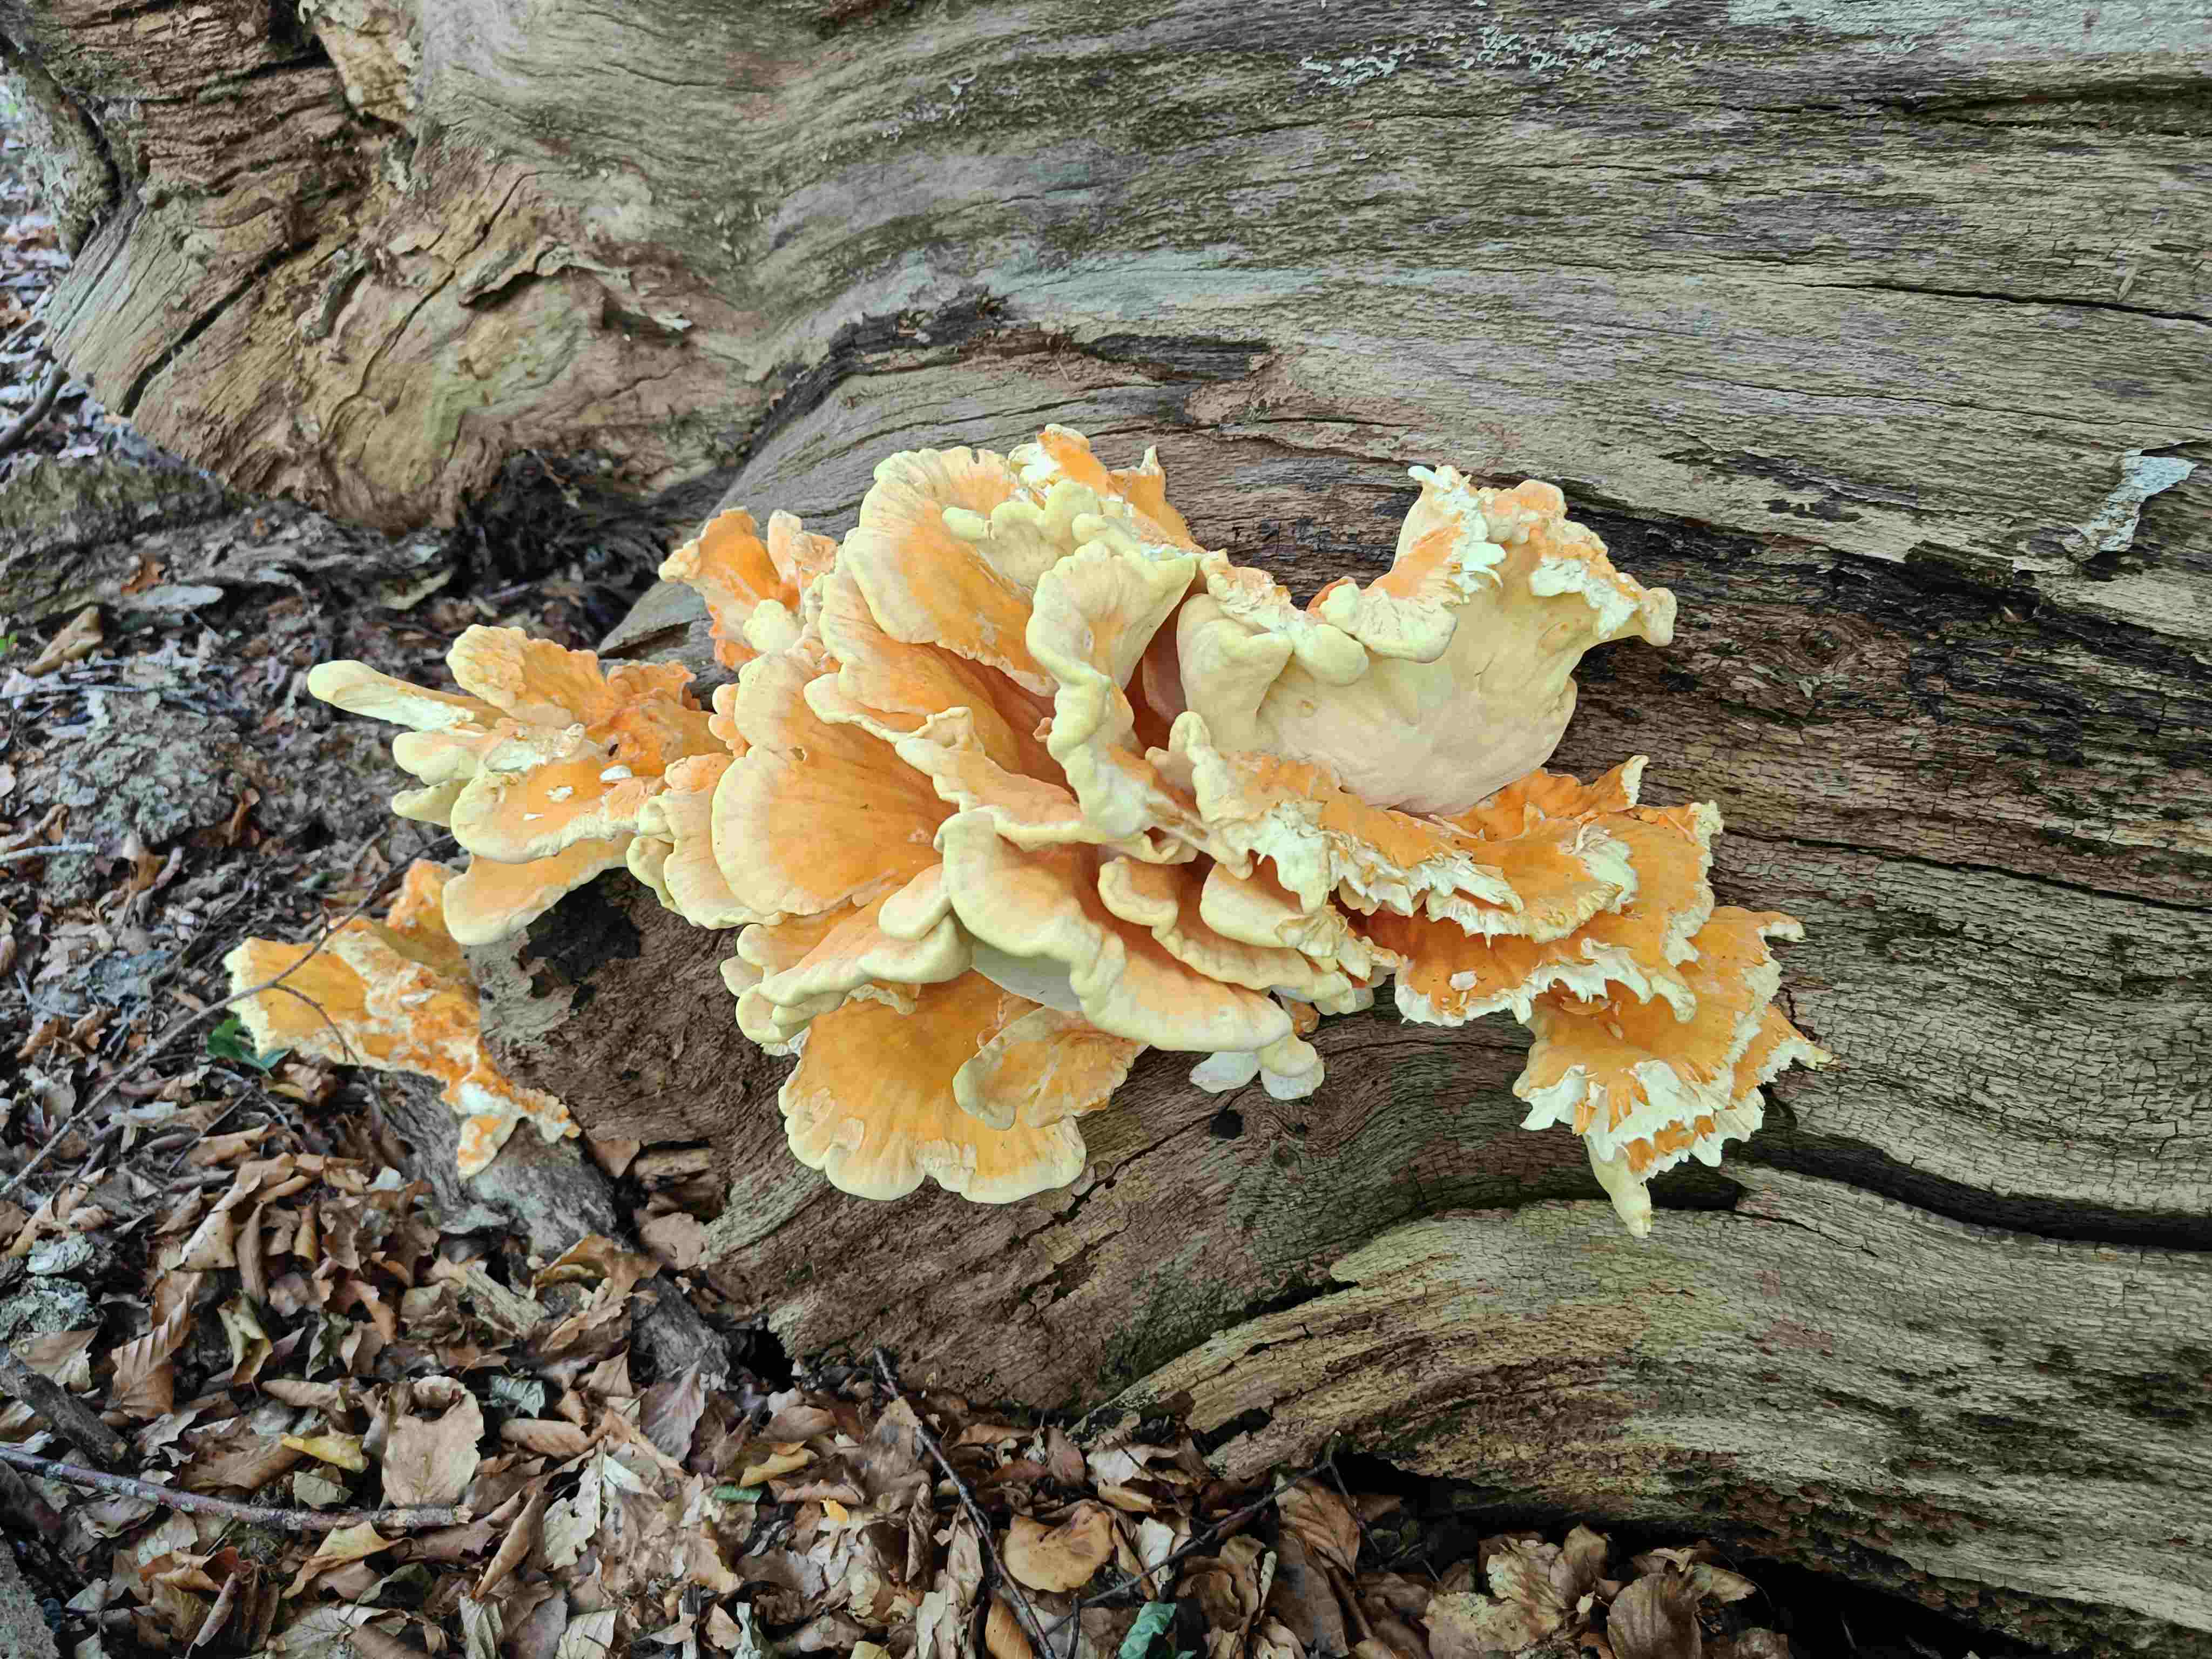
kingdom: Fungi
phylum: Basidiomycota
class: Agaricomycetes
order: Polyporales
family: Laetiporaceae
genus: Laetiporus
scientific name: Laetiporus sulphureus
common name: svovlporesvamp
